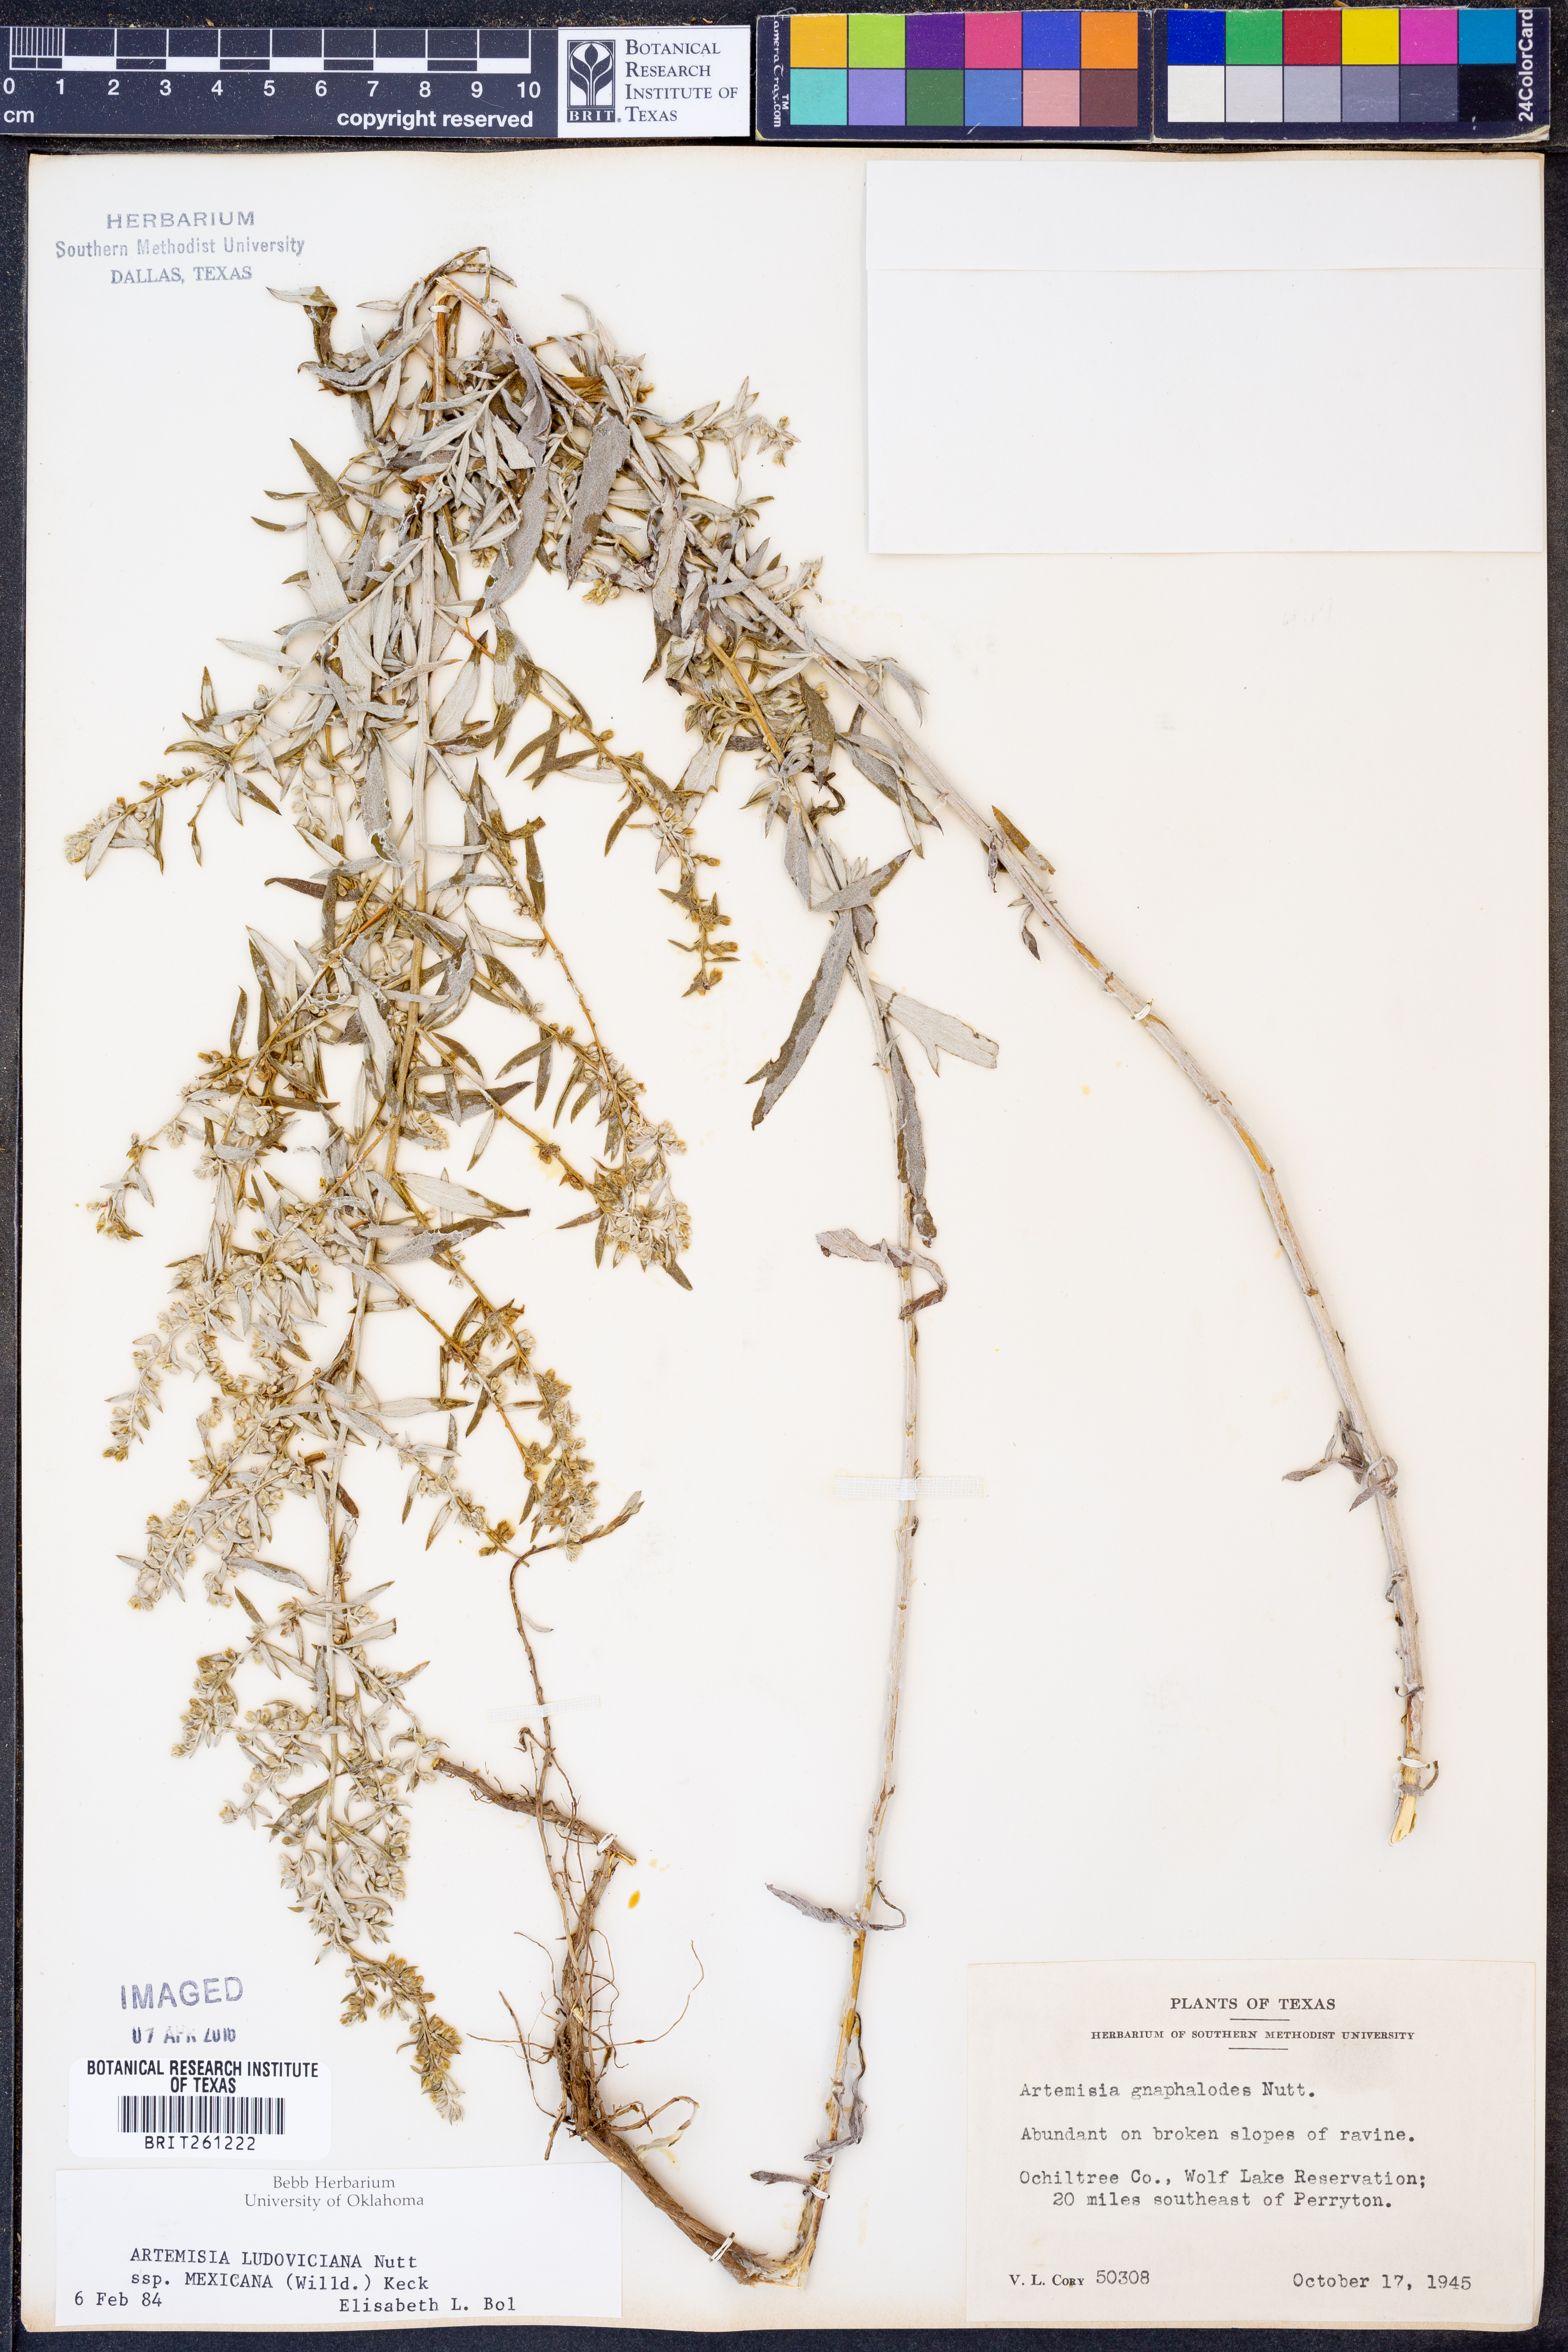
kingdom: Plantae
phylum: Tracheophyta
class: Magnoliopsida
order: Asterales
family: Asteraceae
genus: Artemisia
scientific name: Artemisia ludoviciana
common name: Western mugwort
